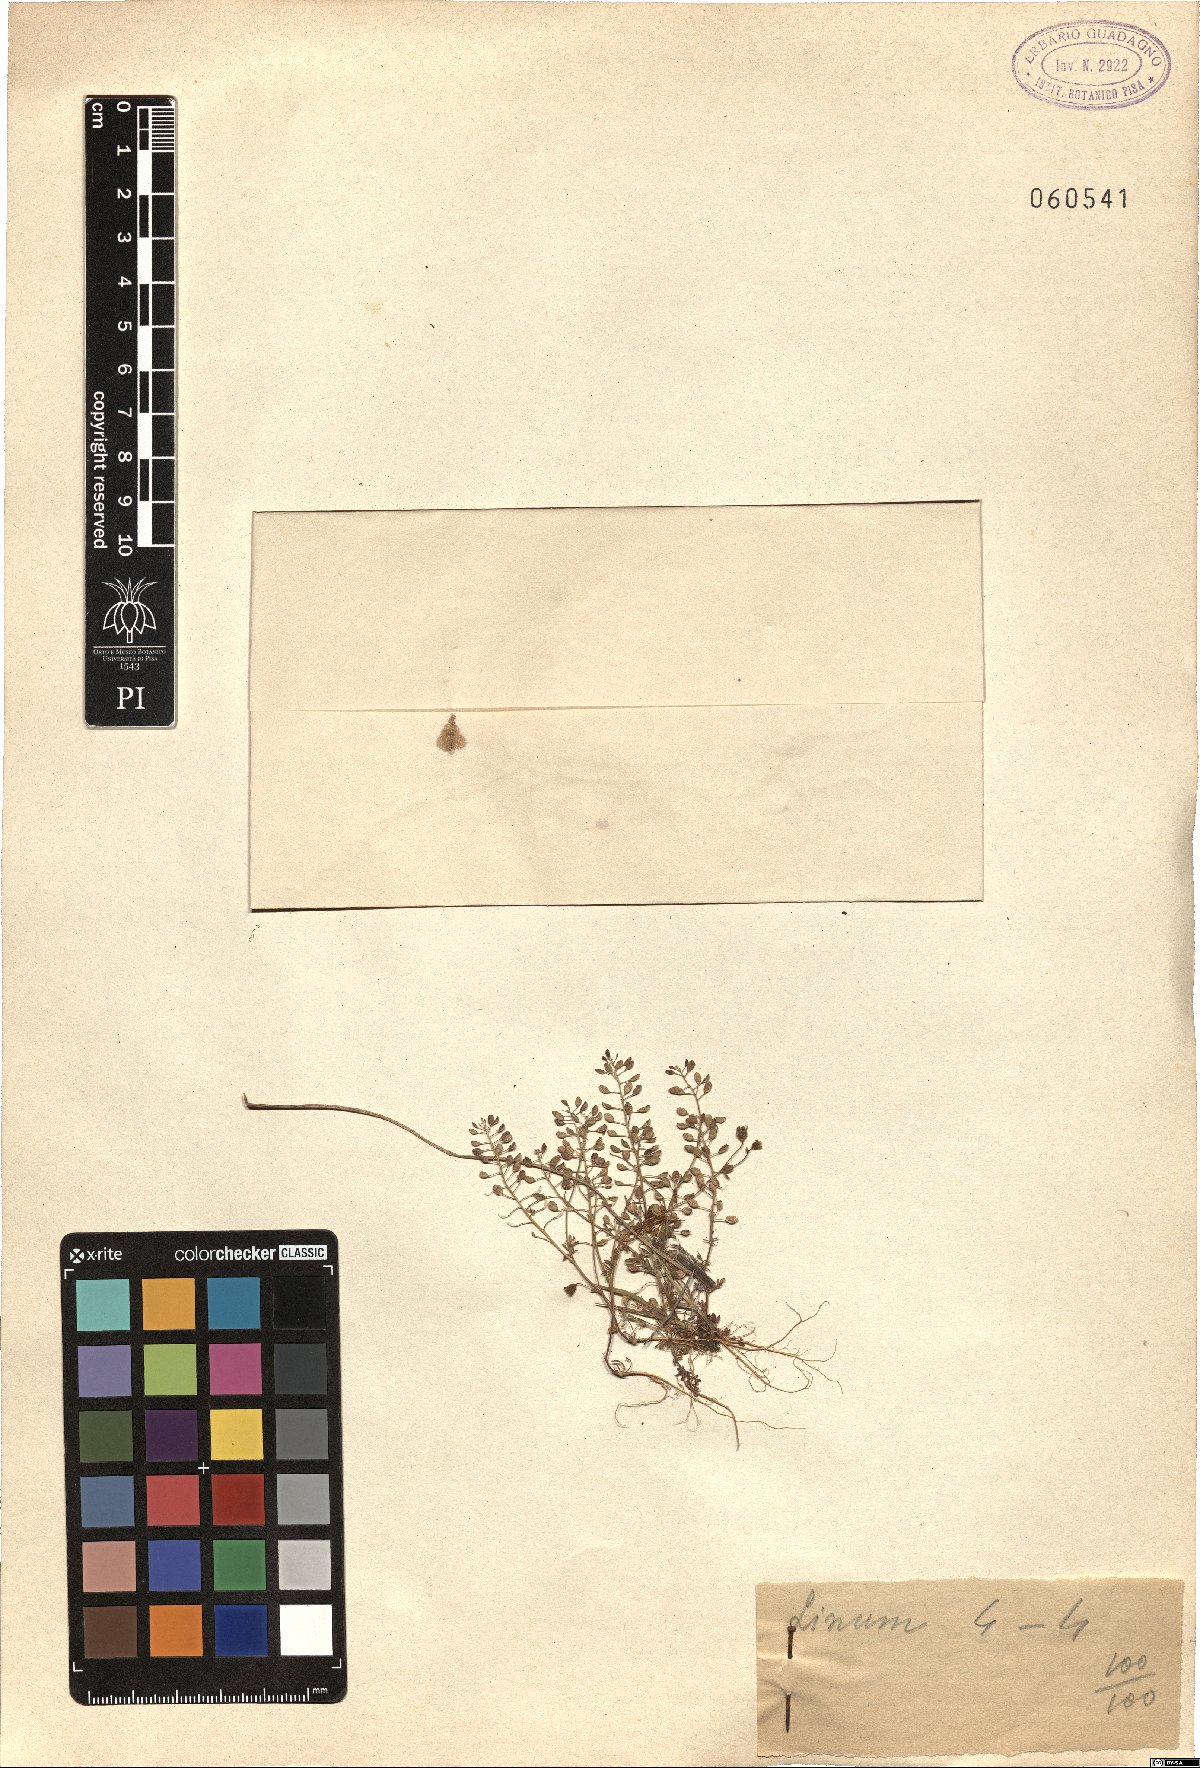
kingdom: Plantae
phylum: Tracheophyta
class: Magnoliopsida
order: Malpighiales
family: Linaceae
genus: Linum
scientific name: Linum
